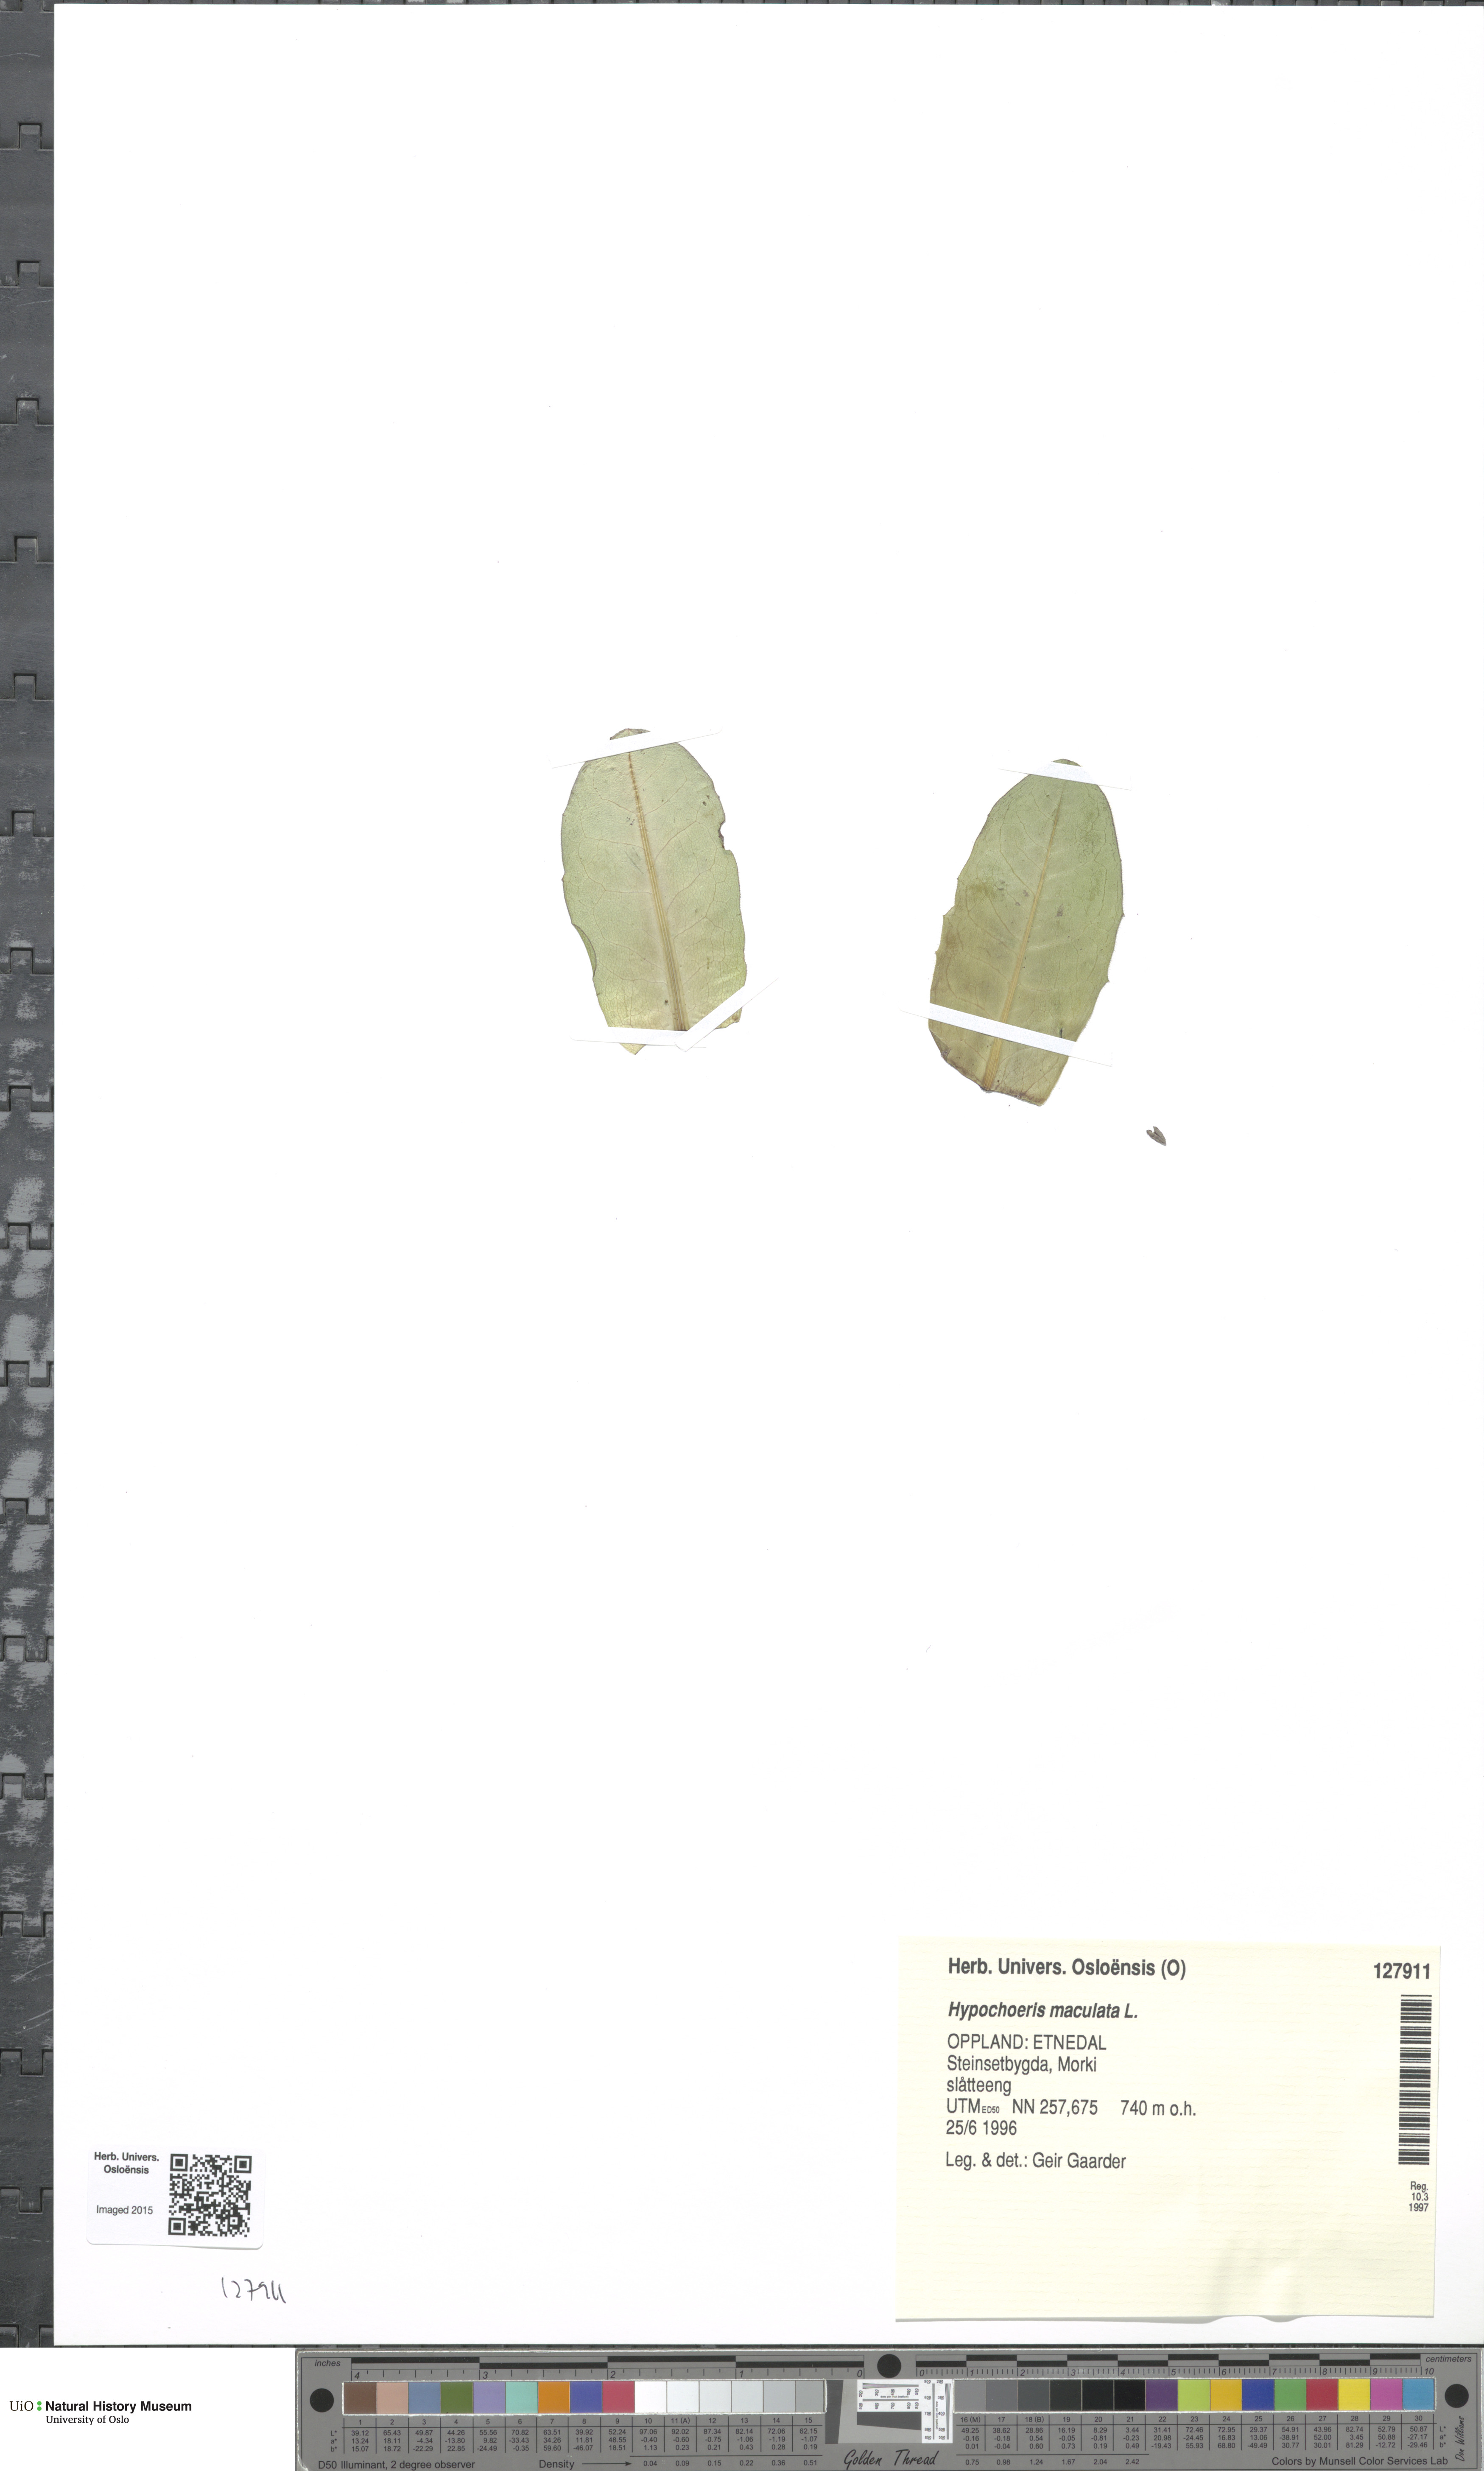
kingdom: Plantae
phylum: Tracheophyta
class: Magnoliopsida
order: Asterales
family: Asteraceae
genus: Trommsdorffia
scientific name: Trommsdorffia maculata
